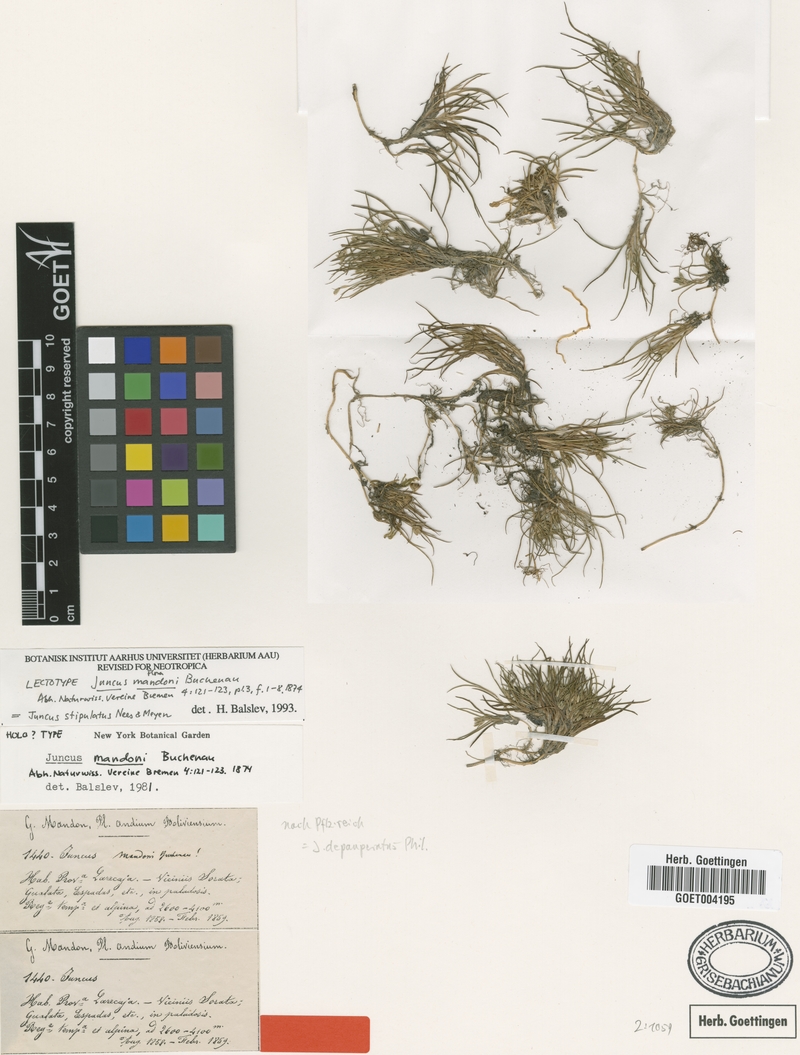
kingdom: Plantae
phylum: Tracheophyta
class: Liliopsida
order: Poales
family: Juncaceae
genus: Juncus
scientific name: Juncus stipulatus
